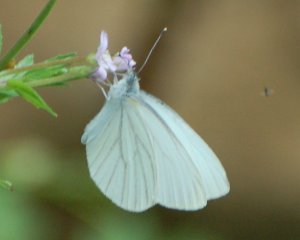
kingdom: Animalia
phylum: Arthropoda
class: Insecta
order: Lepidoptera
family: Pieridae
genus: Pieris
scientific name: Pieris oleracea
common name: Mustard White
